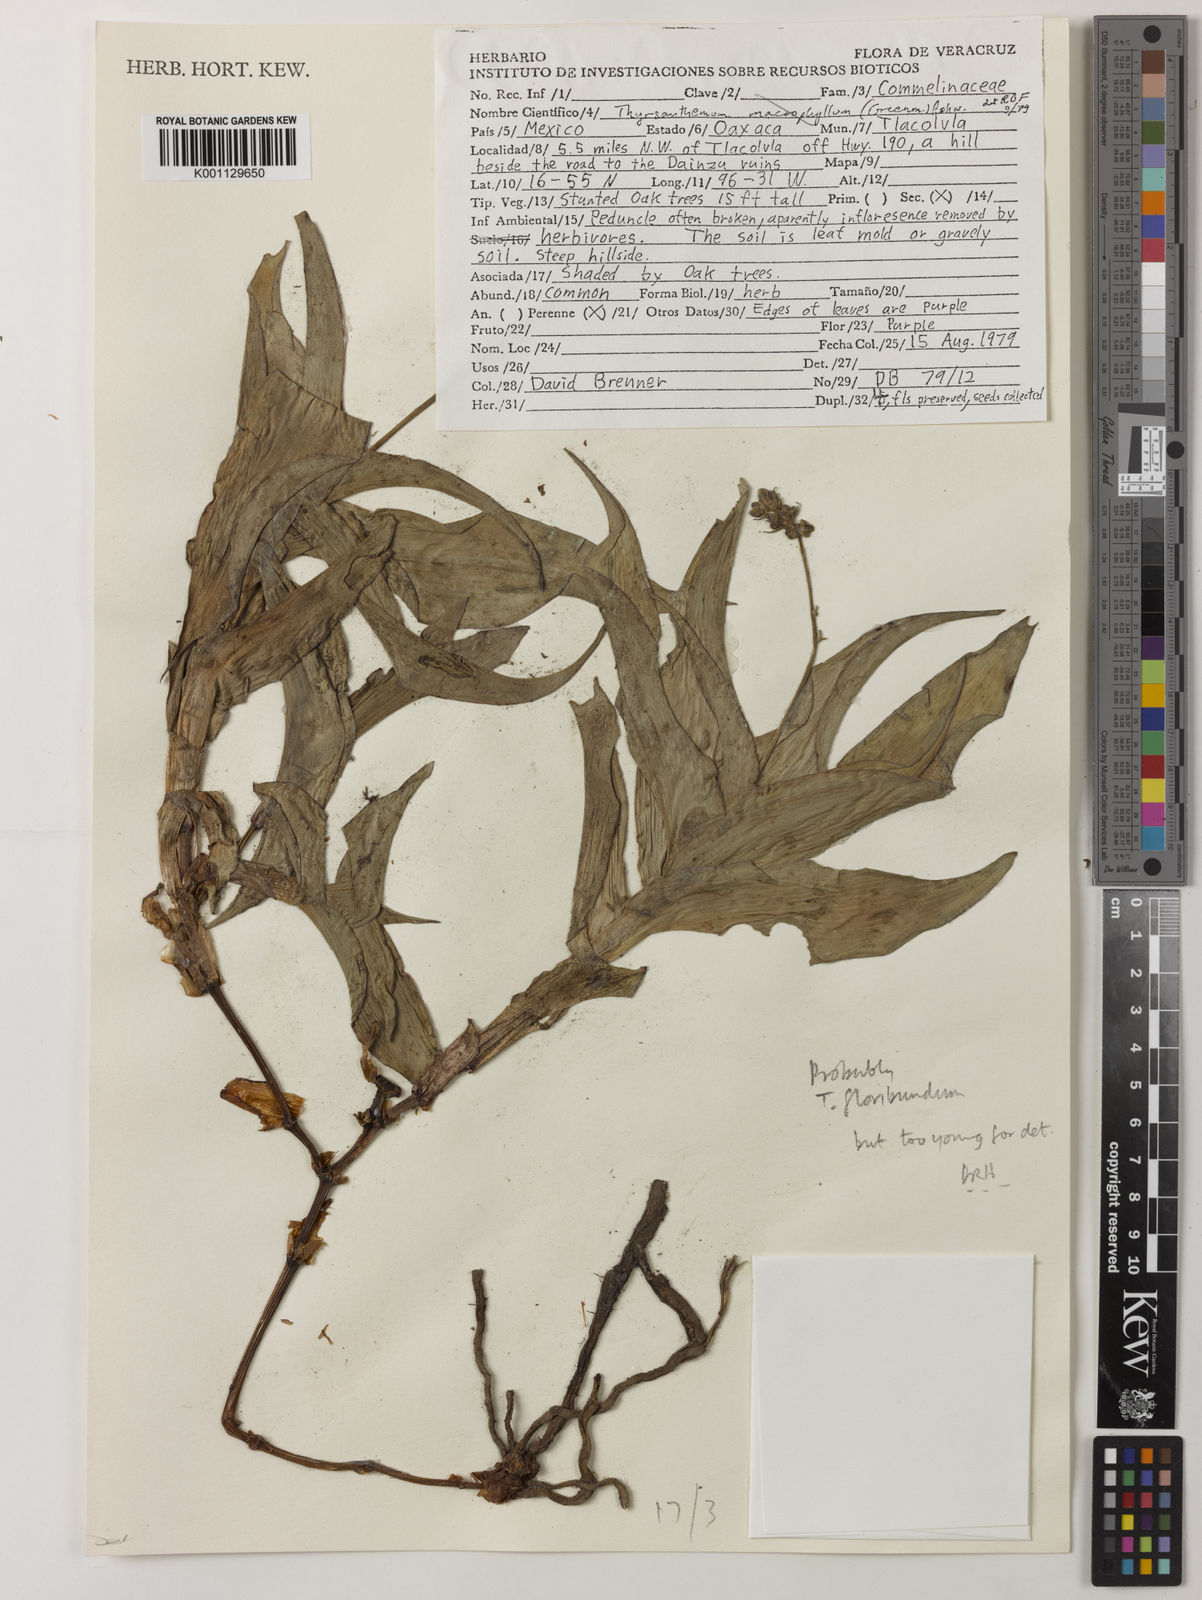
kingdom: Plantae
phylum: Tracheophyta
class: Liliopsida
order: Commelinales
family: Commelinaceae
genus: Thyrsanthemum
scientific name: Thyrsanthemum floribundum
